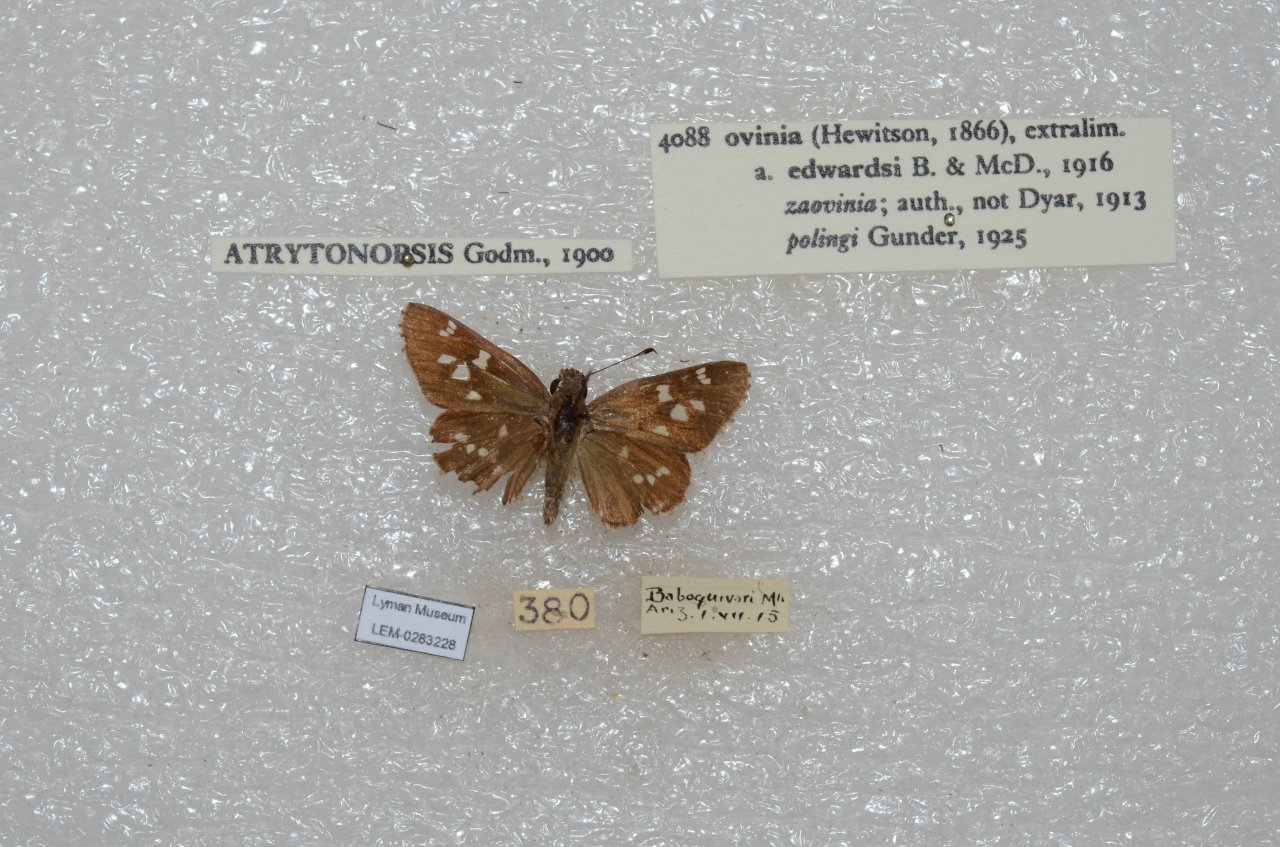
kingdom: Animalia
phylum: Arthropoda
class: Insecta
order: Lepidoptera
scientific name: Lepidoptera
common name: Butterflies
